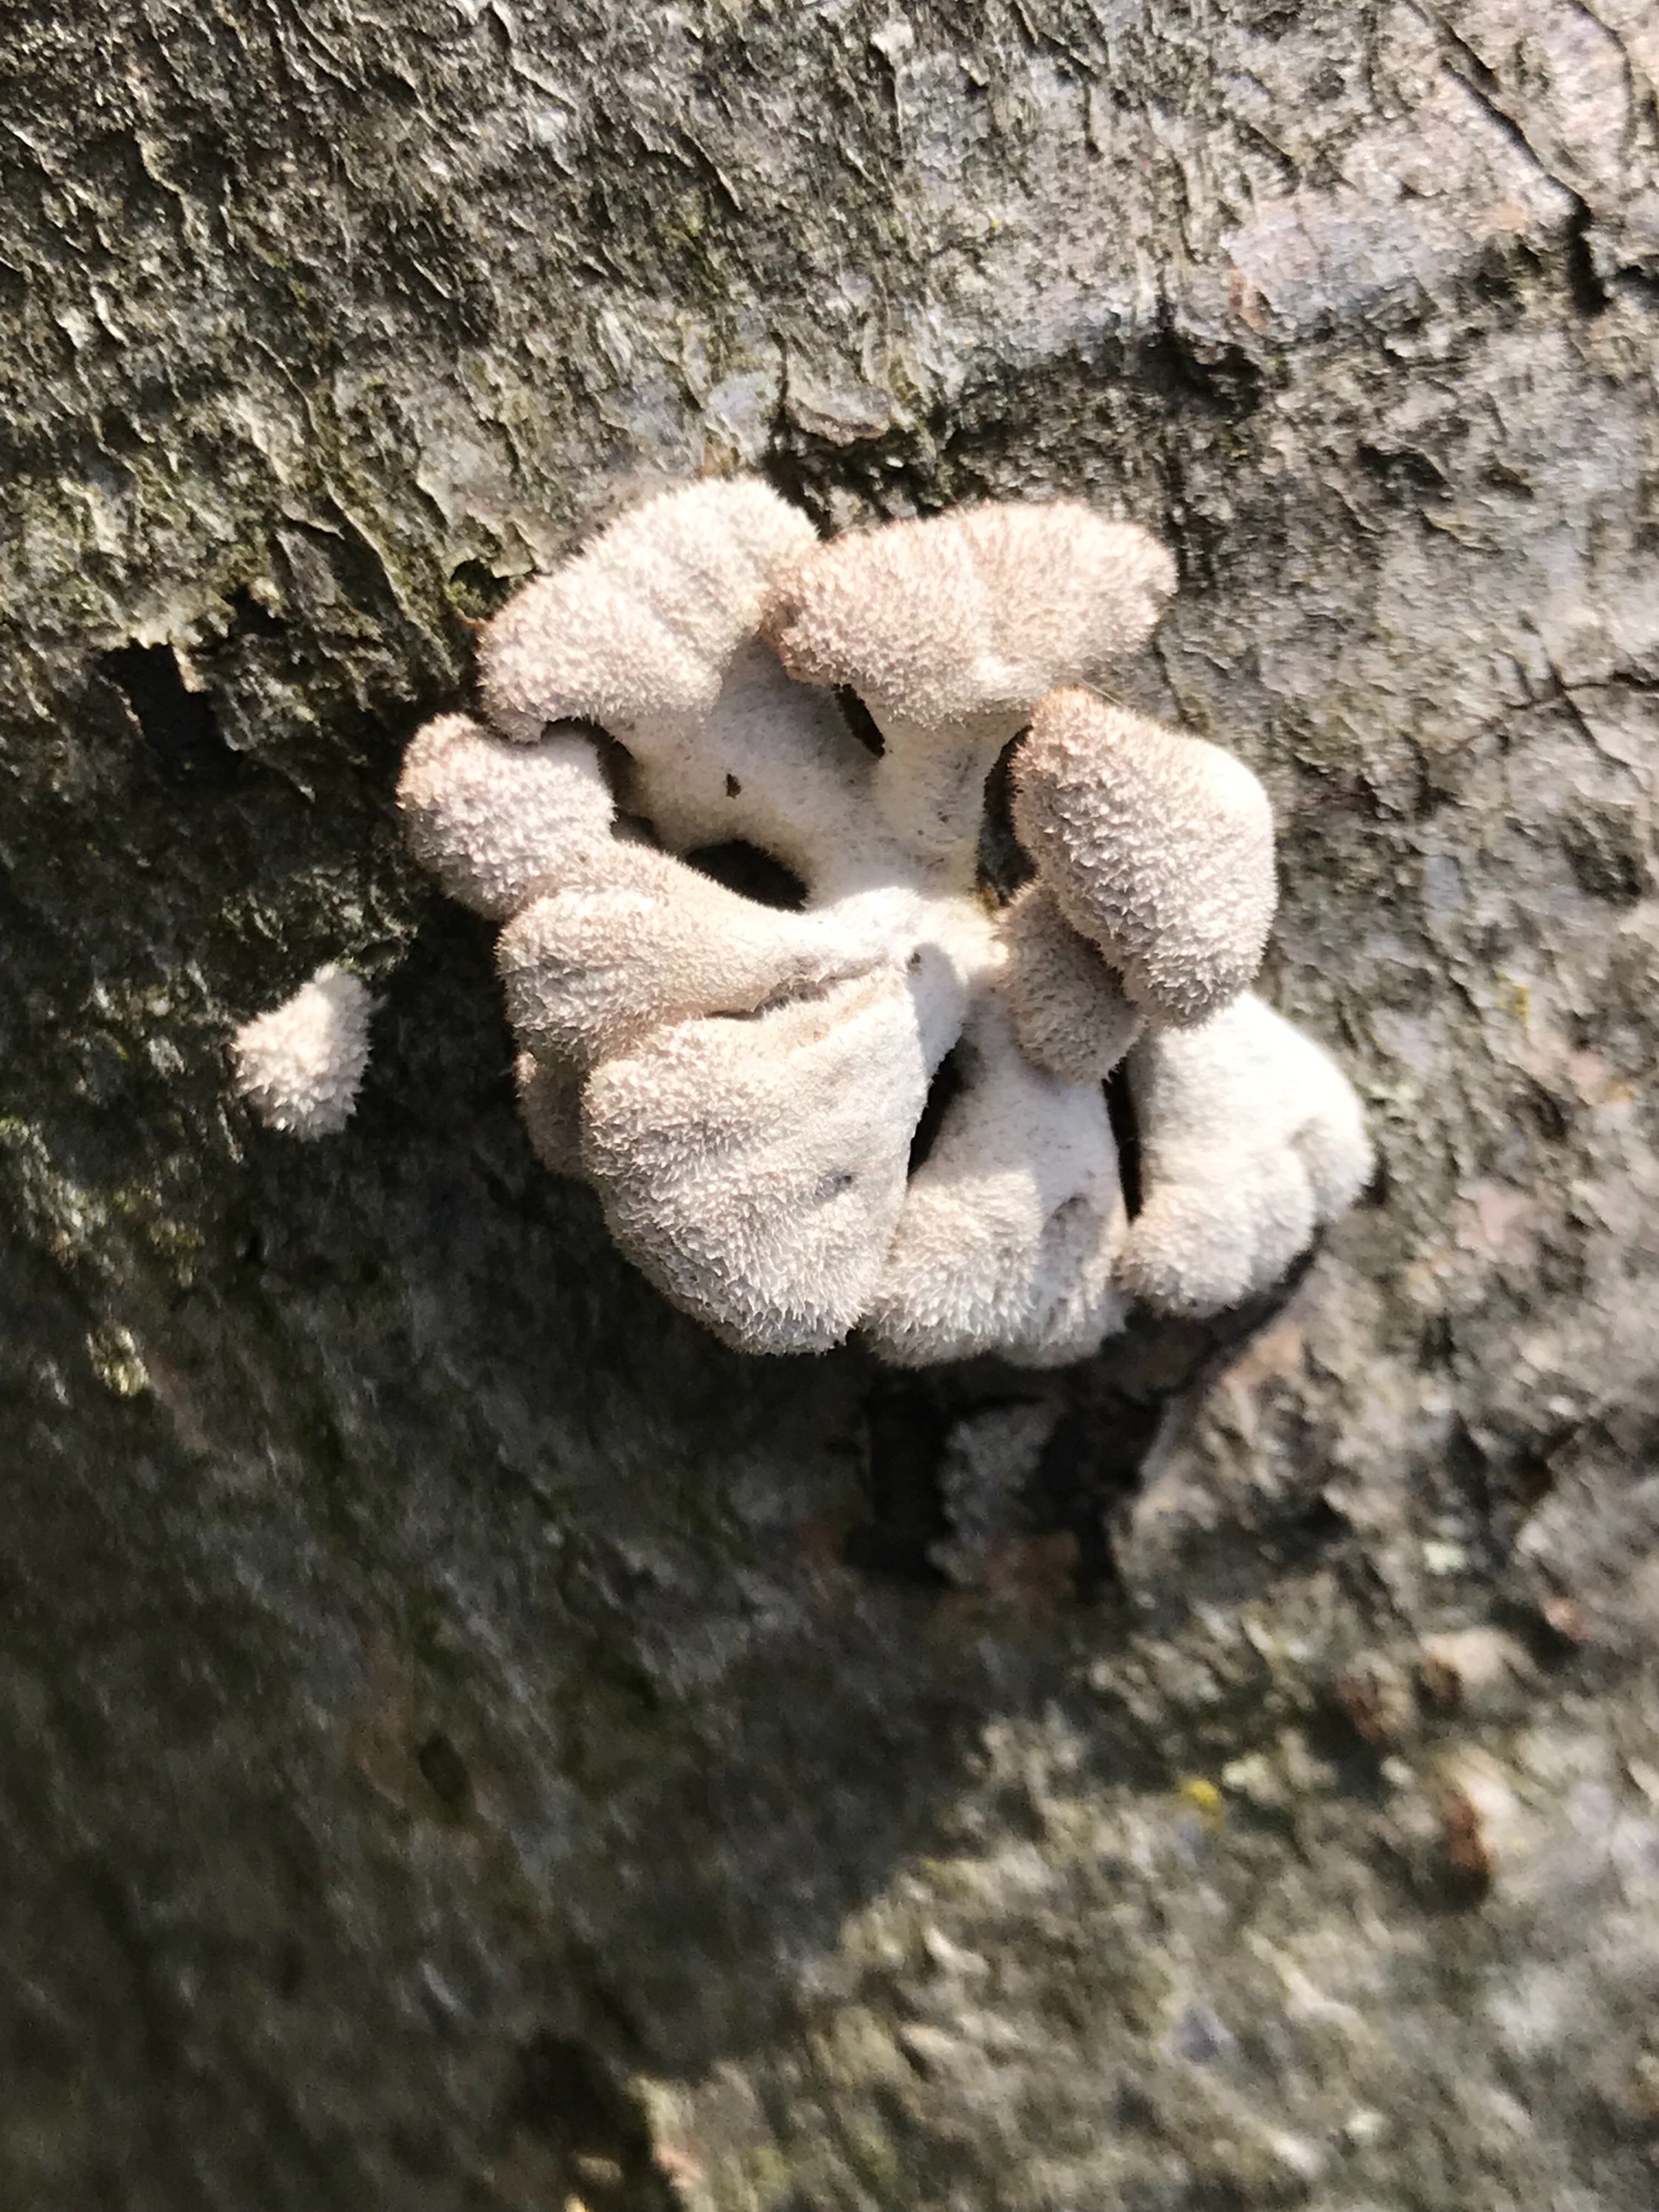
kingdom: Fungi
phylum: Basidiomycota
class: Agaricomycetes
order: Agaricales
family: Schizophyllaceae
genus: Schizophyllum
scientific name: Schizophyllum commune
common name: kløvblad
